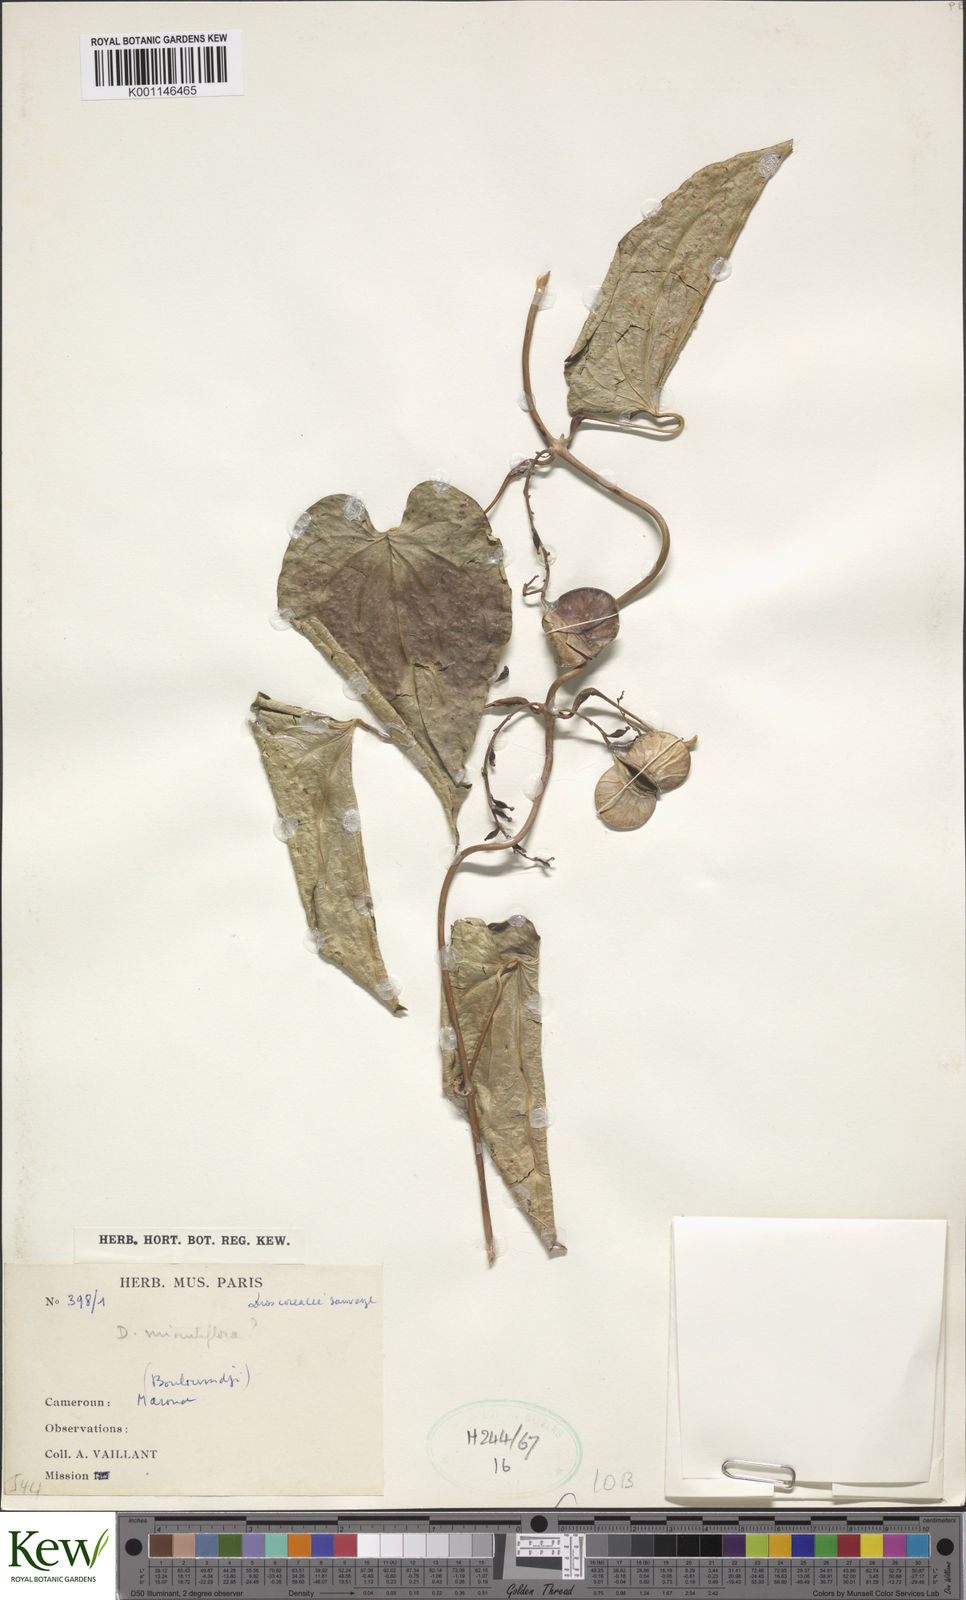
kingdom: Plantae
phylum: Tracheophyta
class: Liliopsida
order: Dioscoreales
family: Dioscoreaceae
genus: Dioscorea
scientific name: Dioscorea minutiflora
